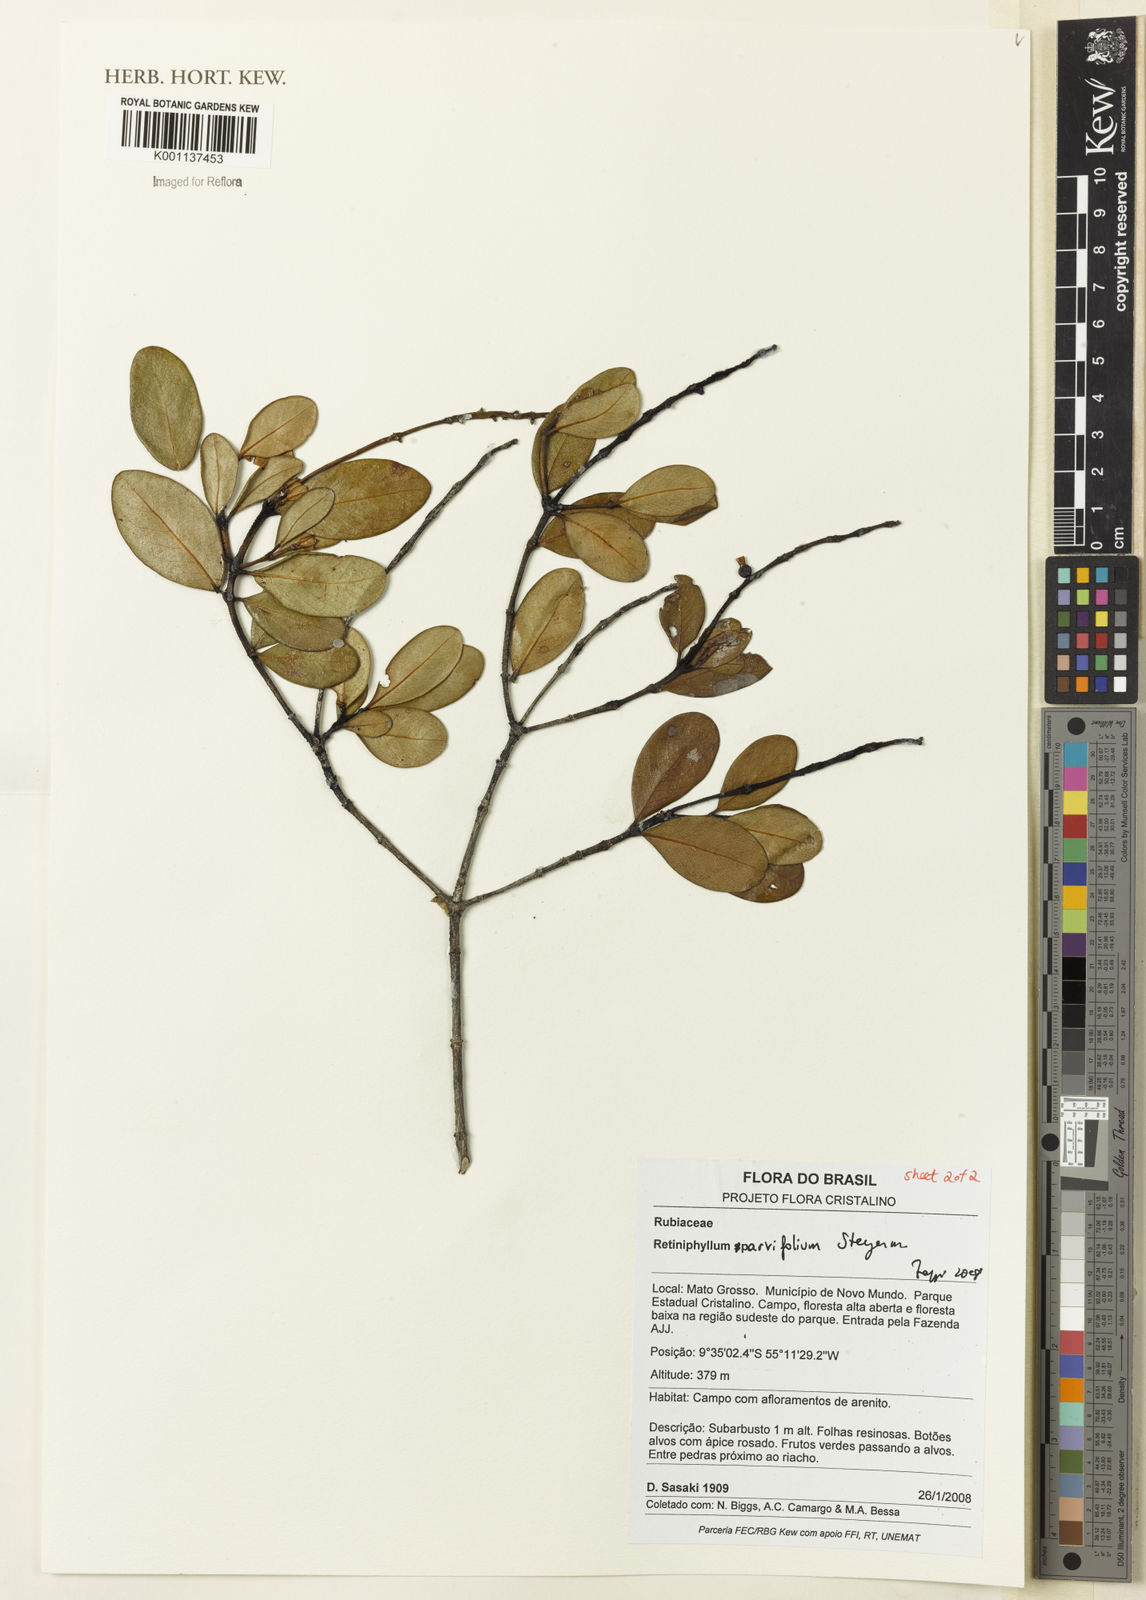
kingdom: Plantae
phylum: Tracheophyta
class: Magnoliopsida
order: Gentianales
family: Rubiaceae
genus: Retiniphyllum
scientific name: Retiniphyllum parvifolium
